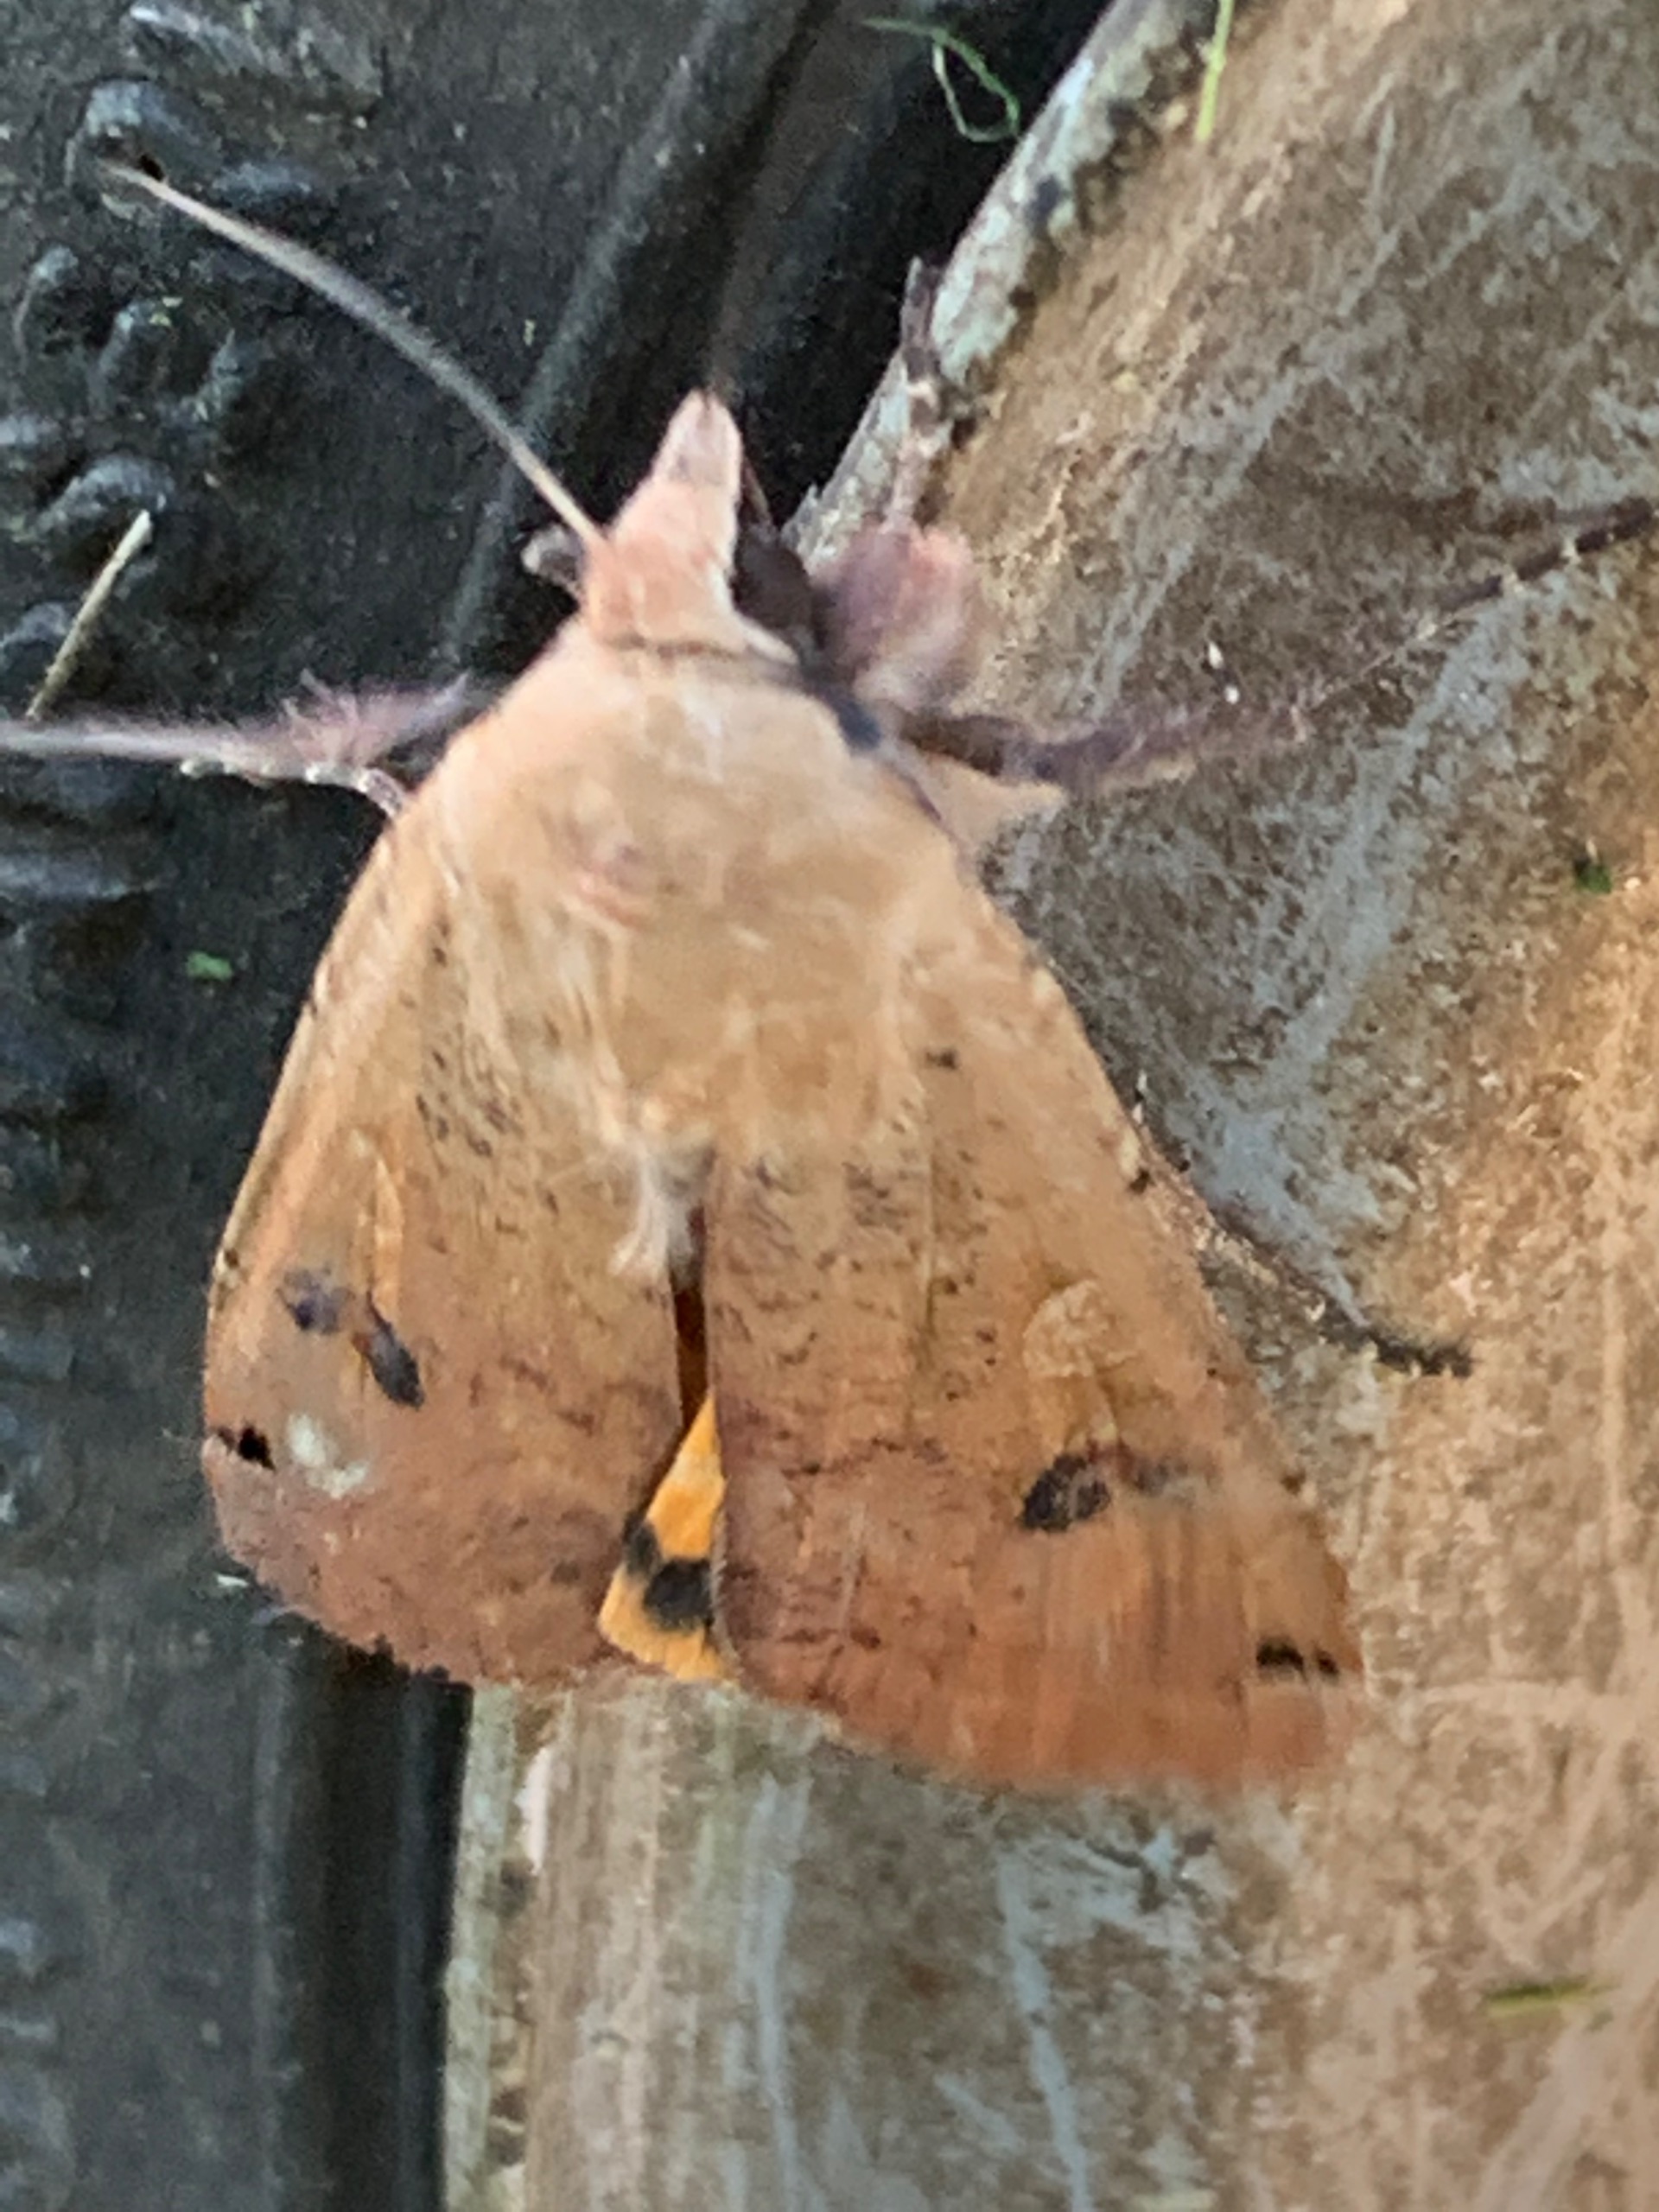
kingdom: Animalia
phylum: Arthropoda
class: Insecta
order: Lepidoptera
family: Noctuidae
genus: Noctua
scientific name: Noctua pronuba
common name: Stor smutugle
